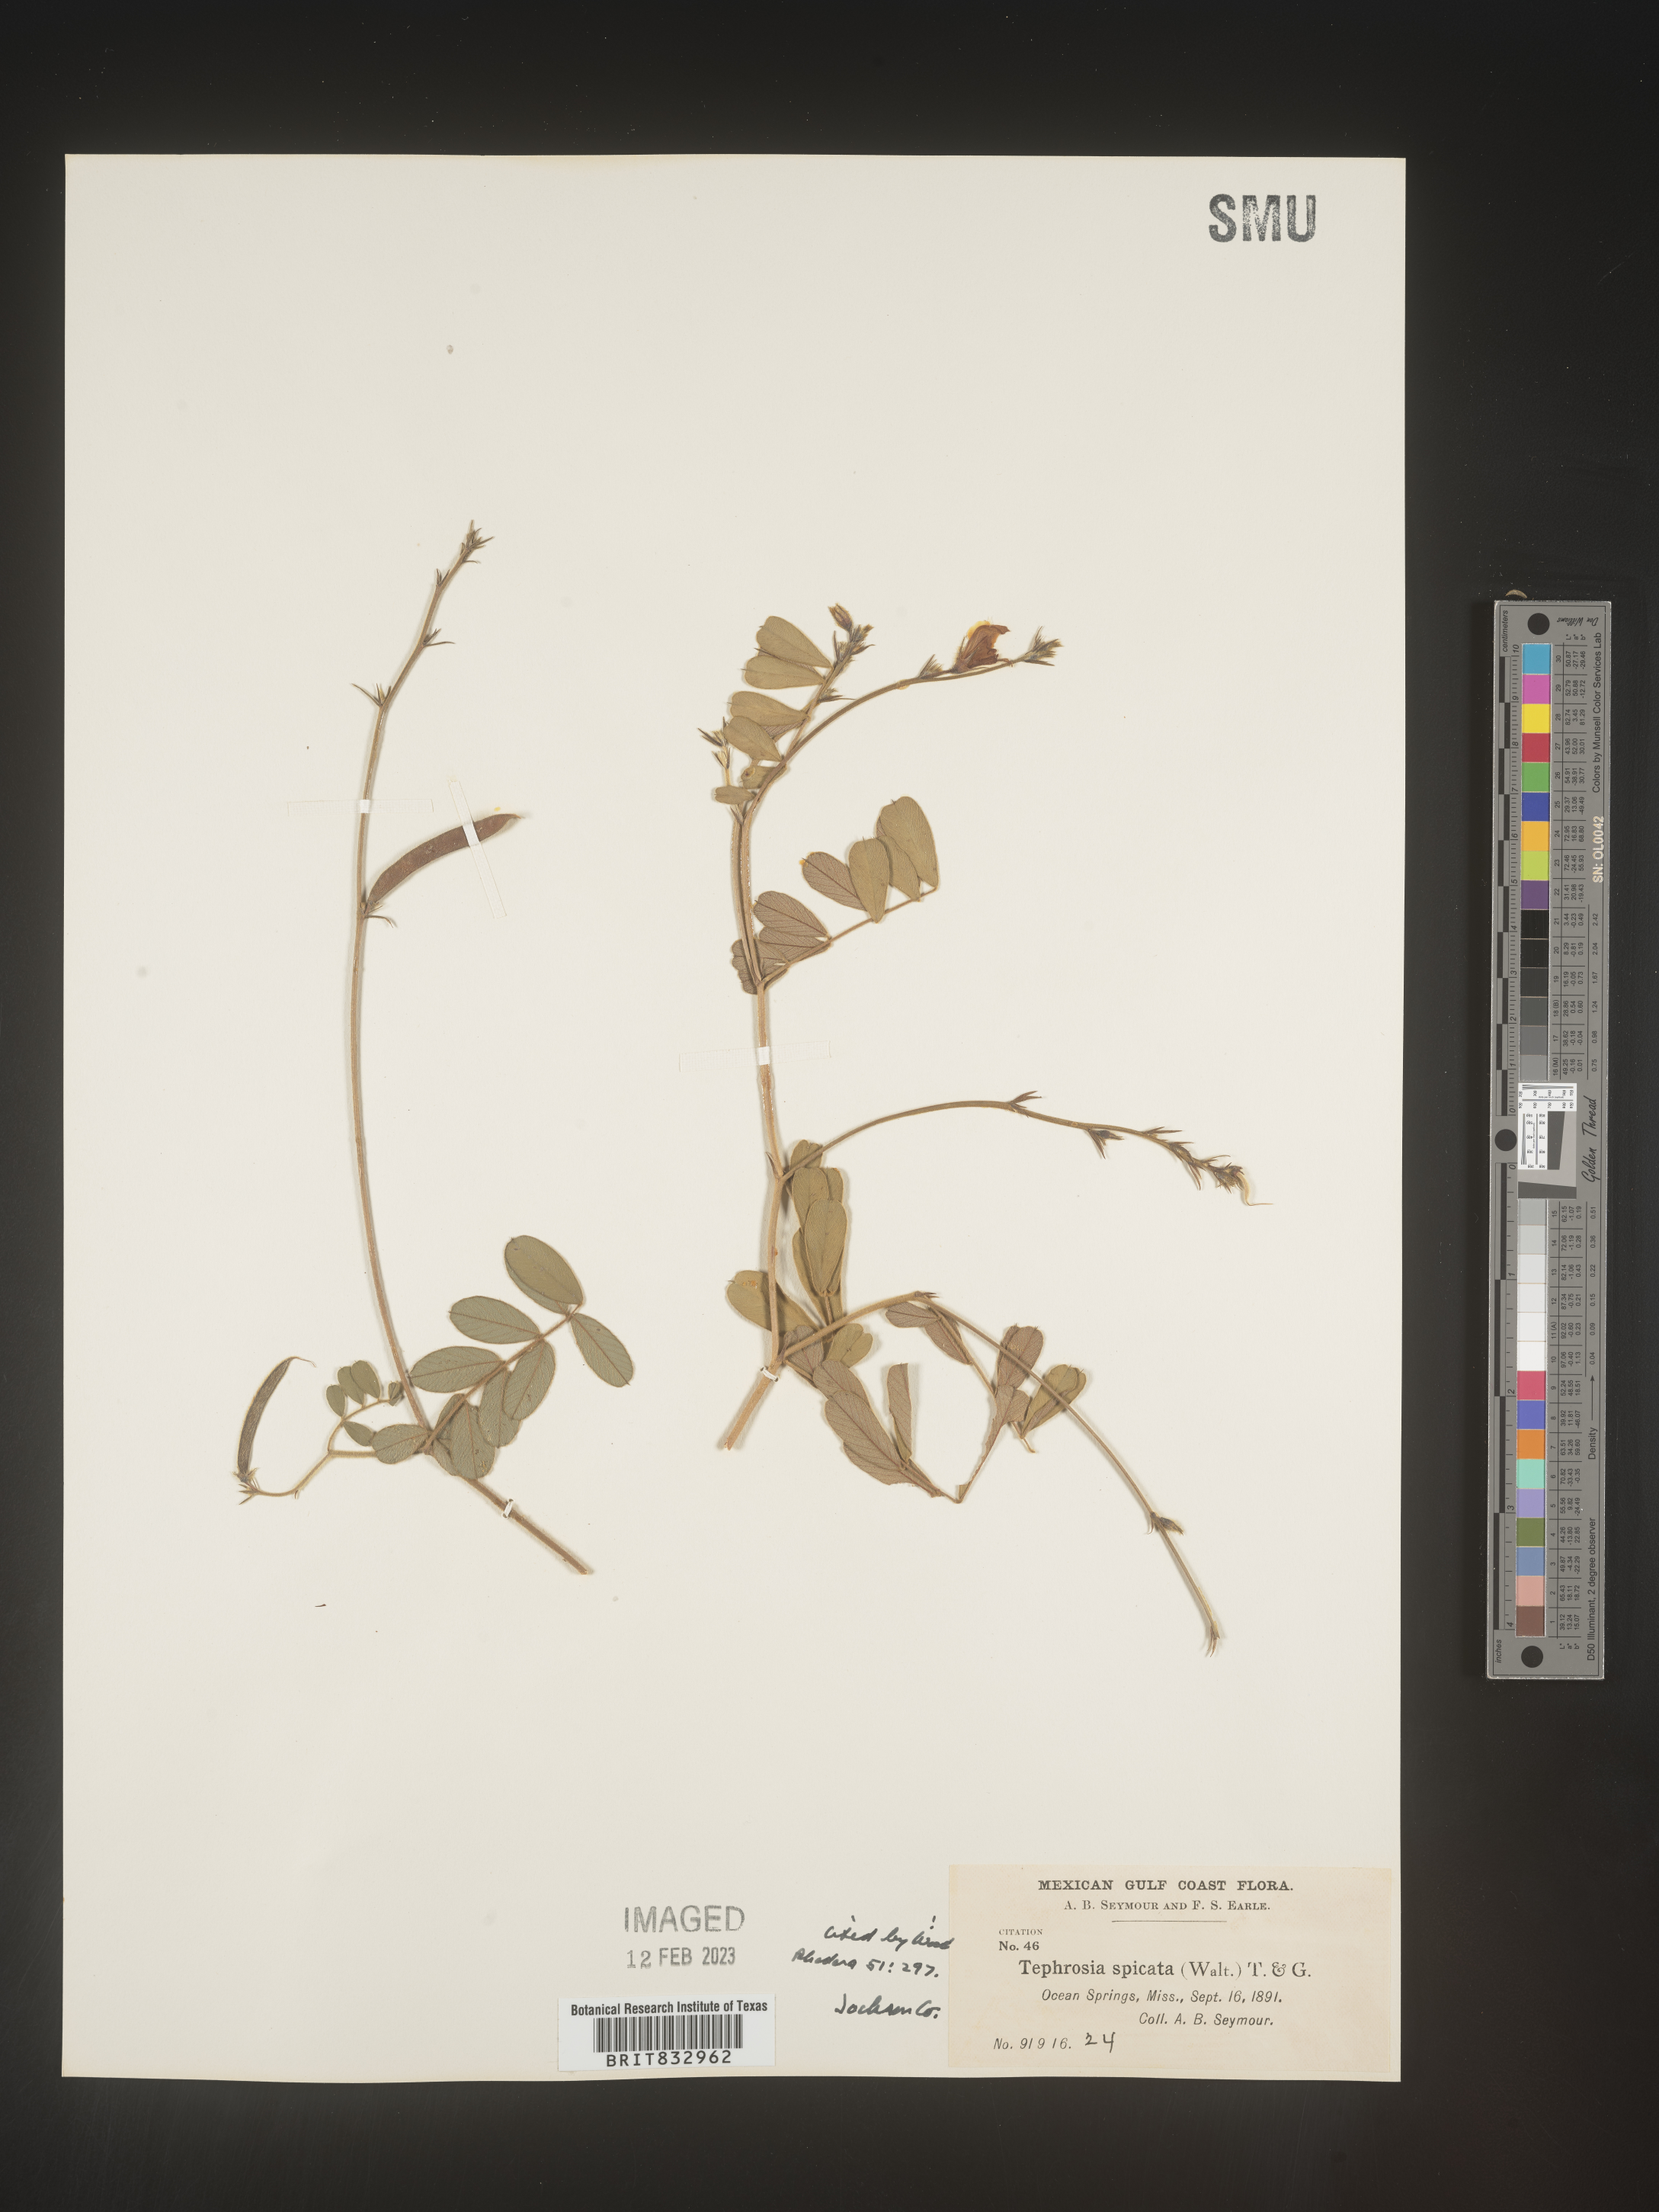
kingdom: Plantae
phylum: Tracheophyta
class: Magnoliopsida
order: Fabales
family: Fabaceae
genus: Tephrosia
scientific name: Tephrosia spicata
